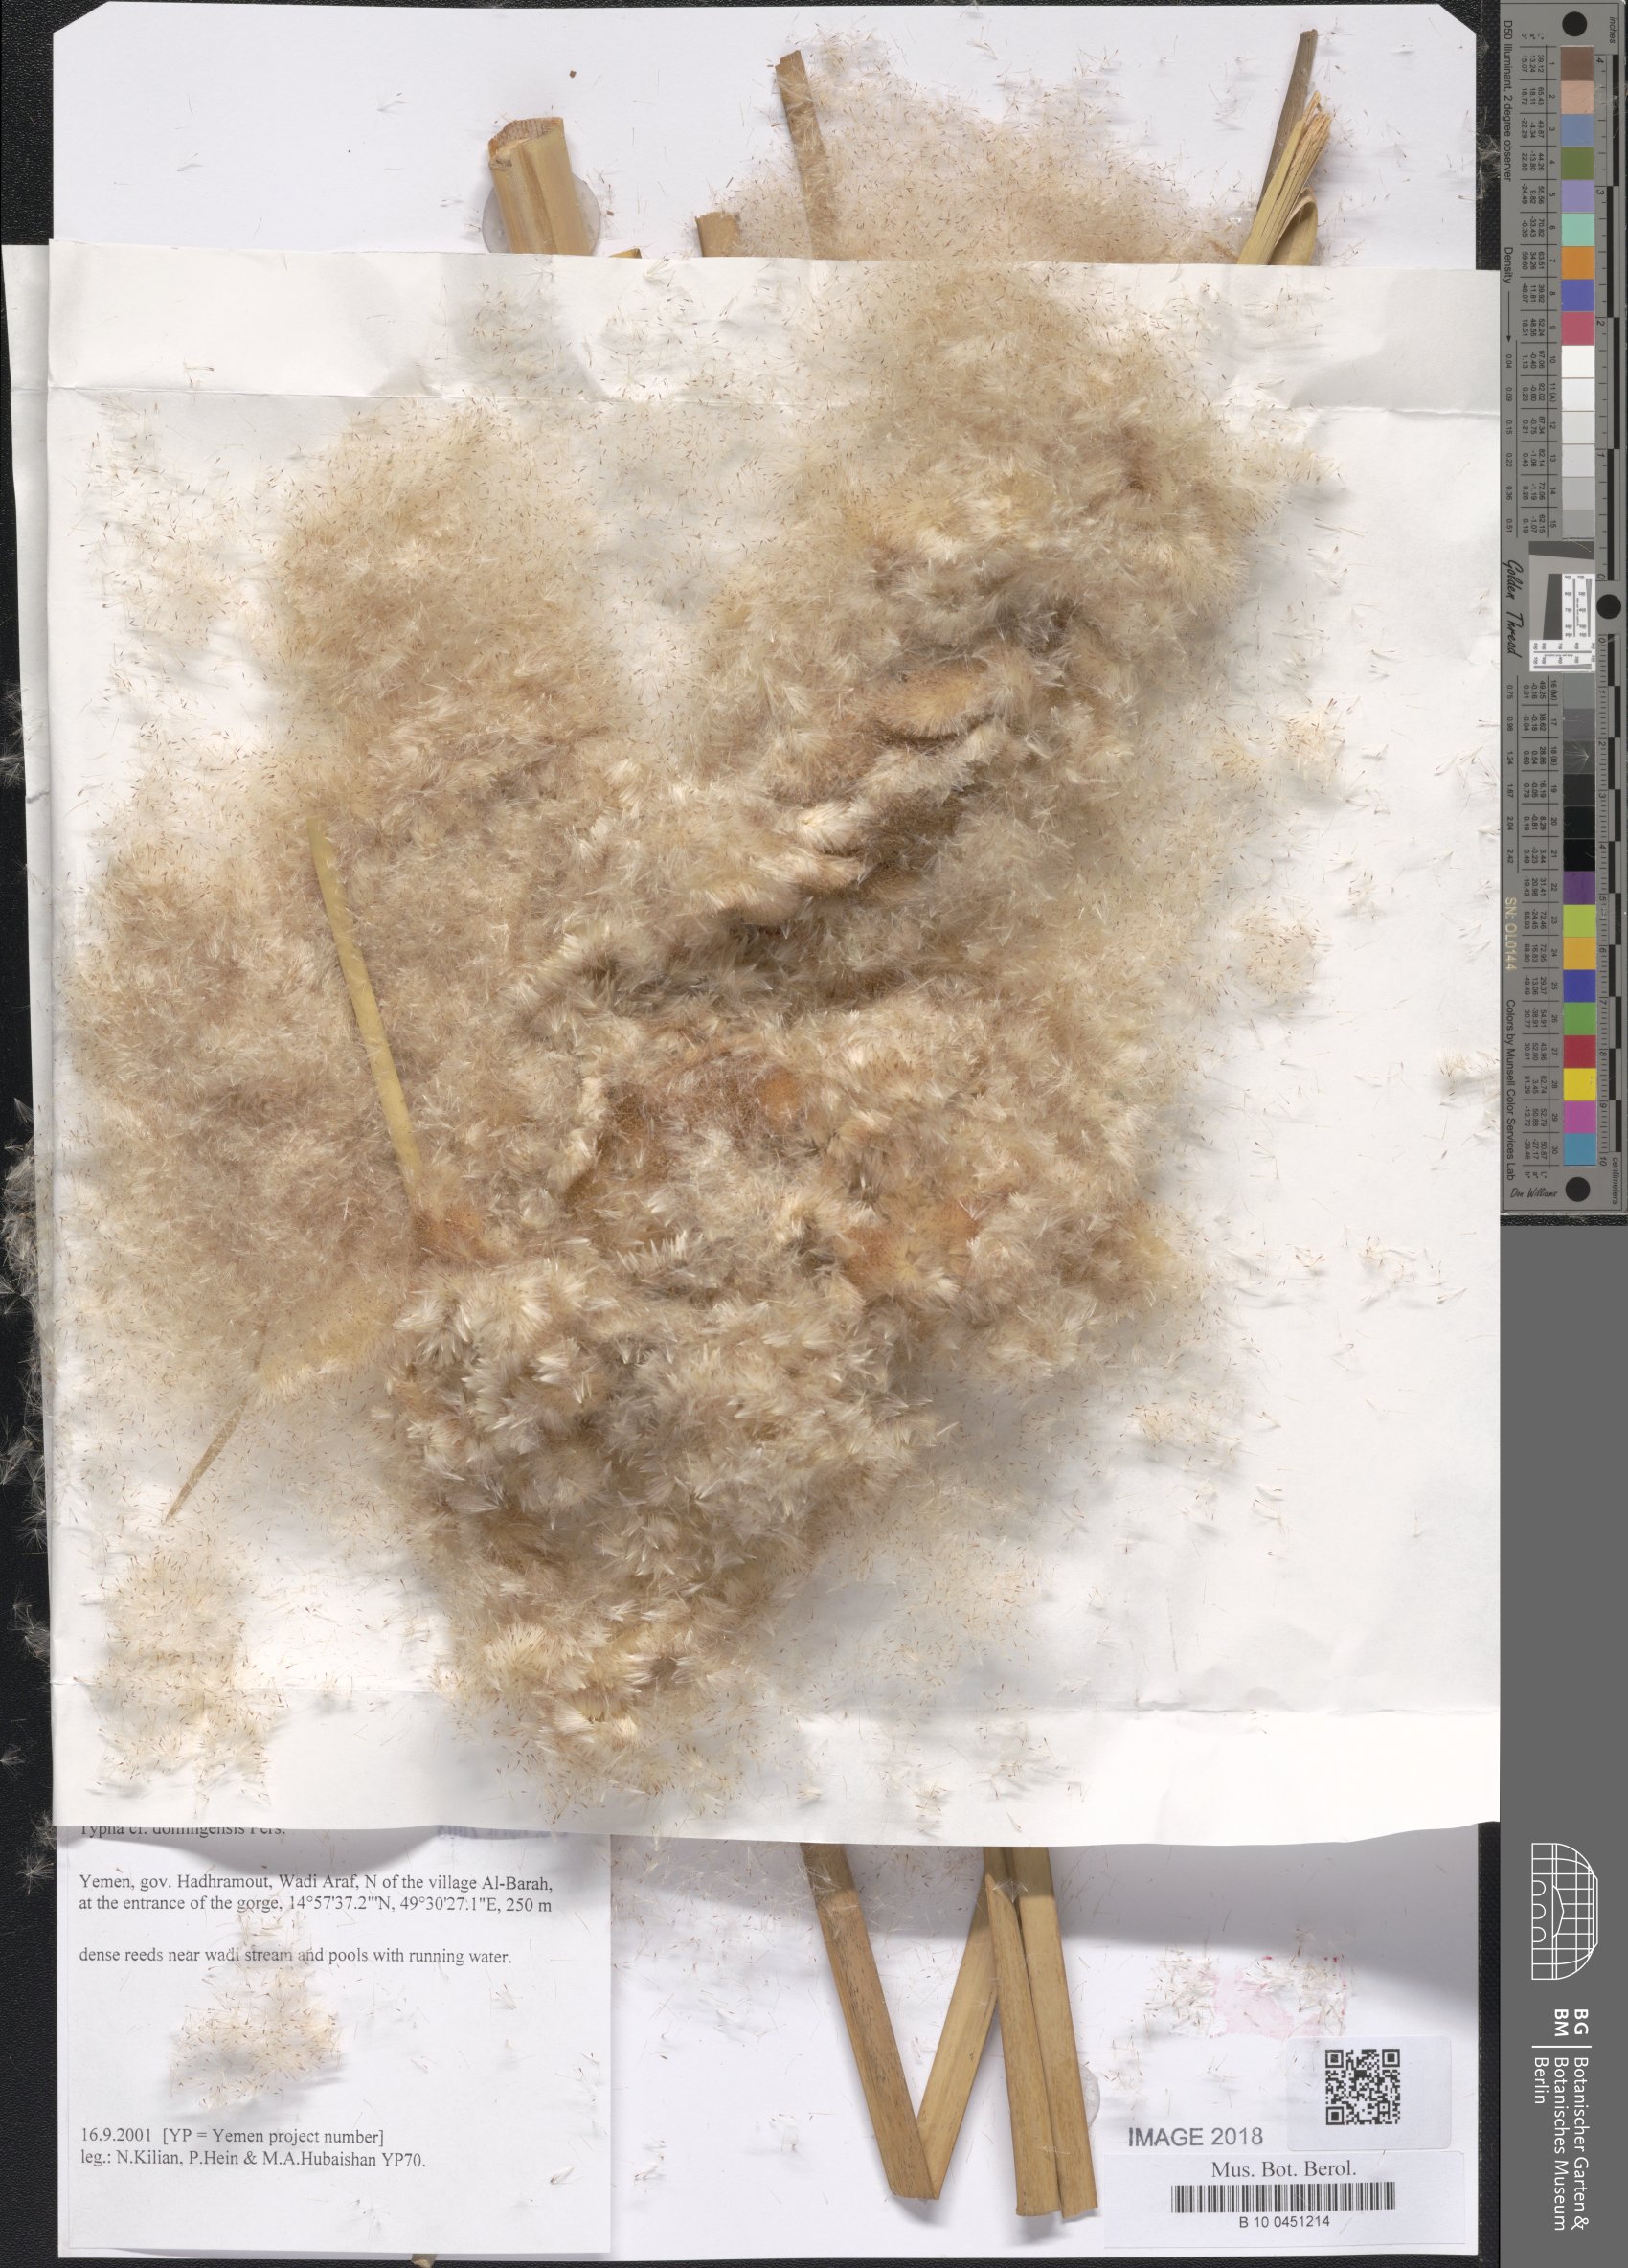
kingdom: Plantae
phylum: Tracheophyta
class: Liliopsida
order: Poales
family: Typhaceae
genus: Typha
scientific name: Typha domingensis
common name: Southern cattail
